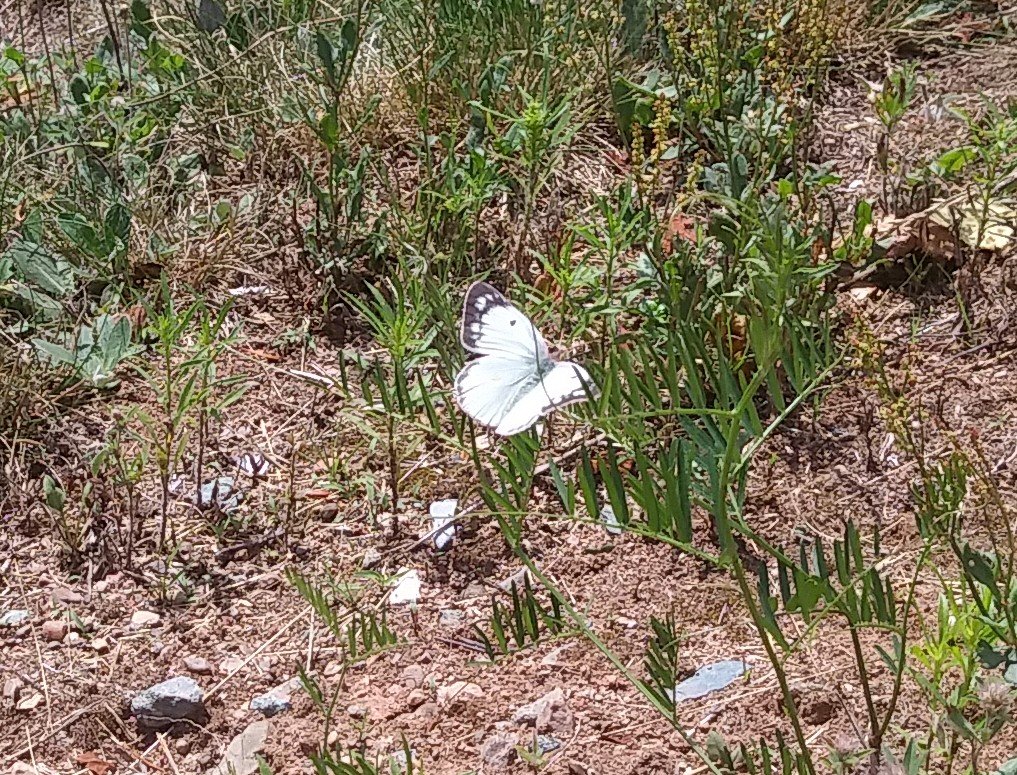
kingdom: Animalia
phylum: Arthropoda
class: Insecta
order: Lepidoptera
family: Pieridae
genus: Colias
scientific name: Colias philodice
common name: Clouded Sulphur
